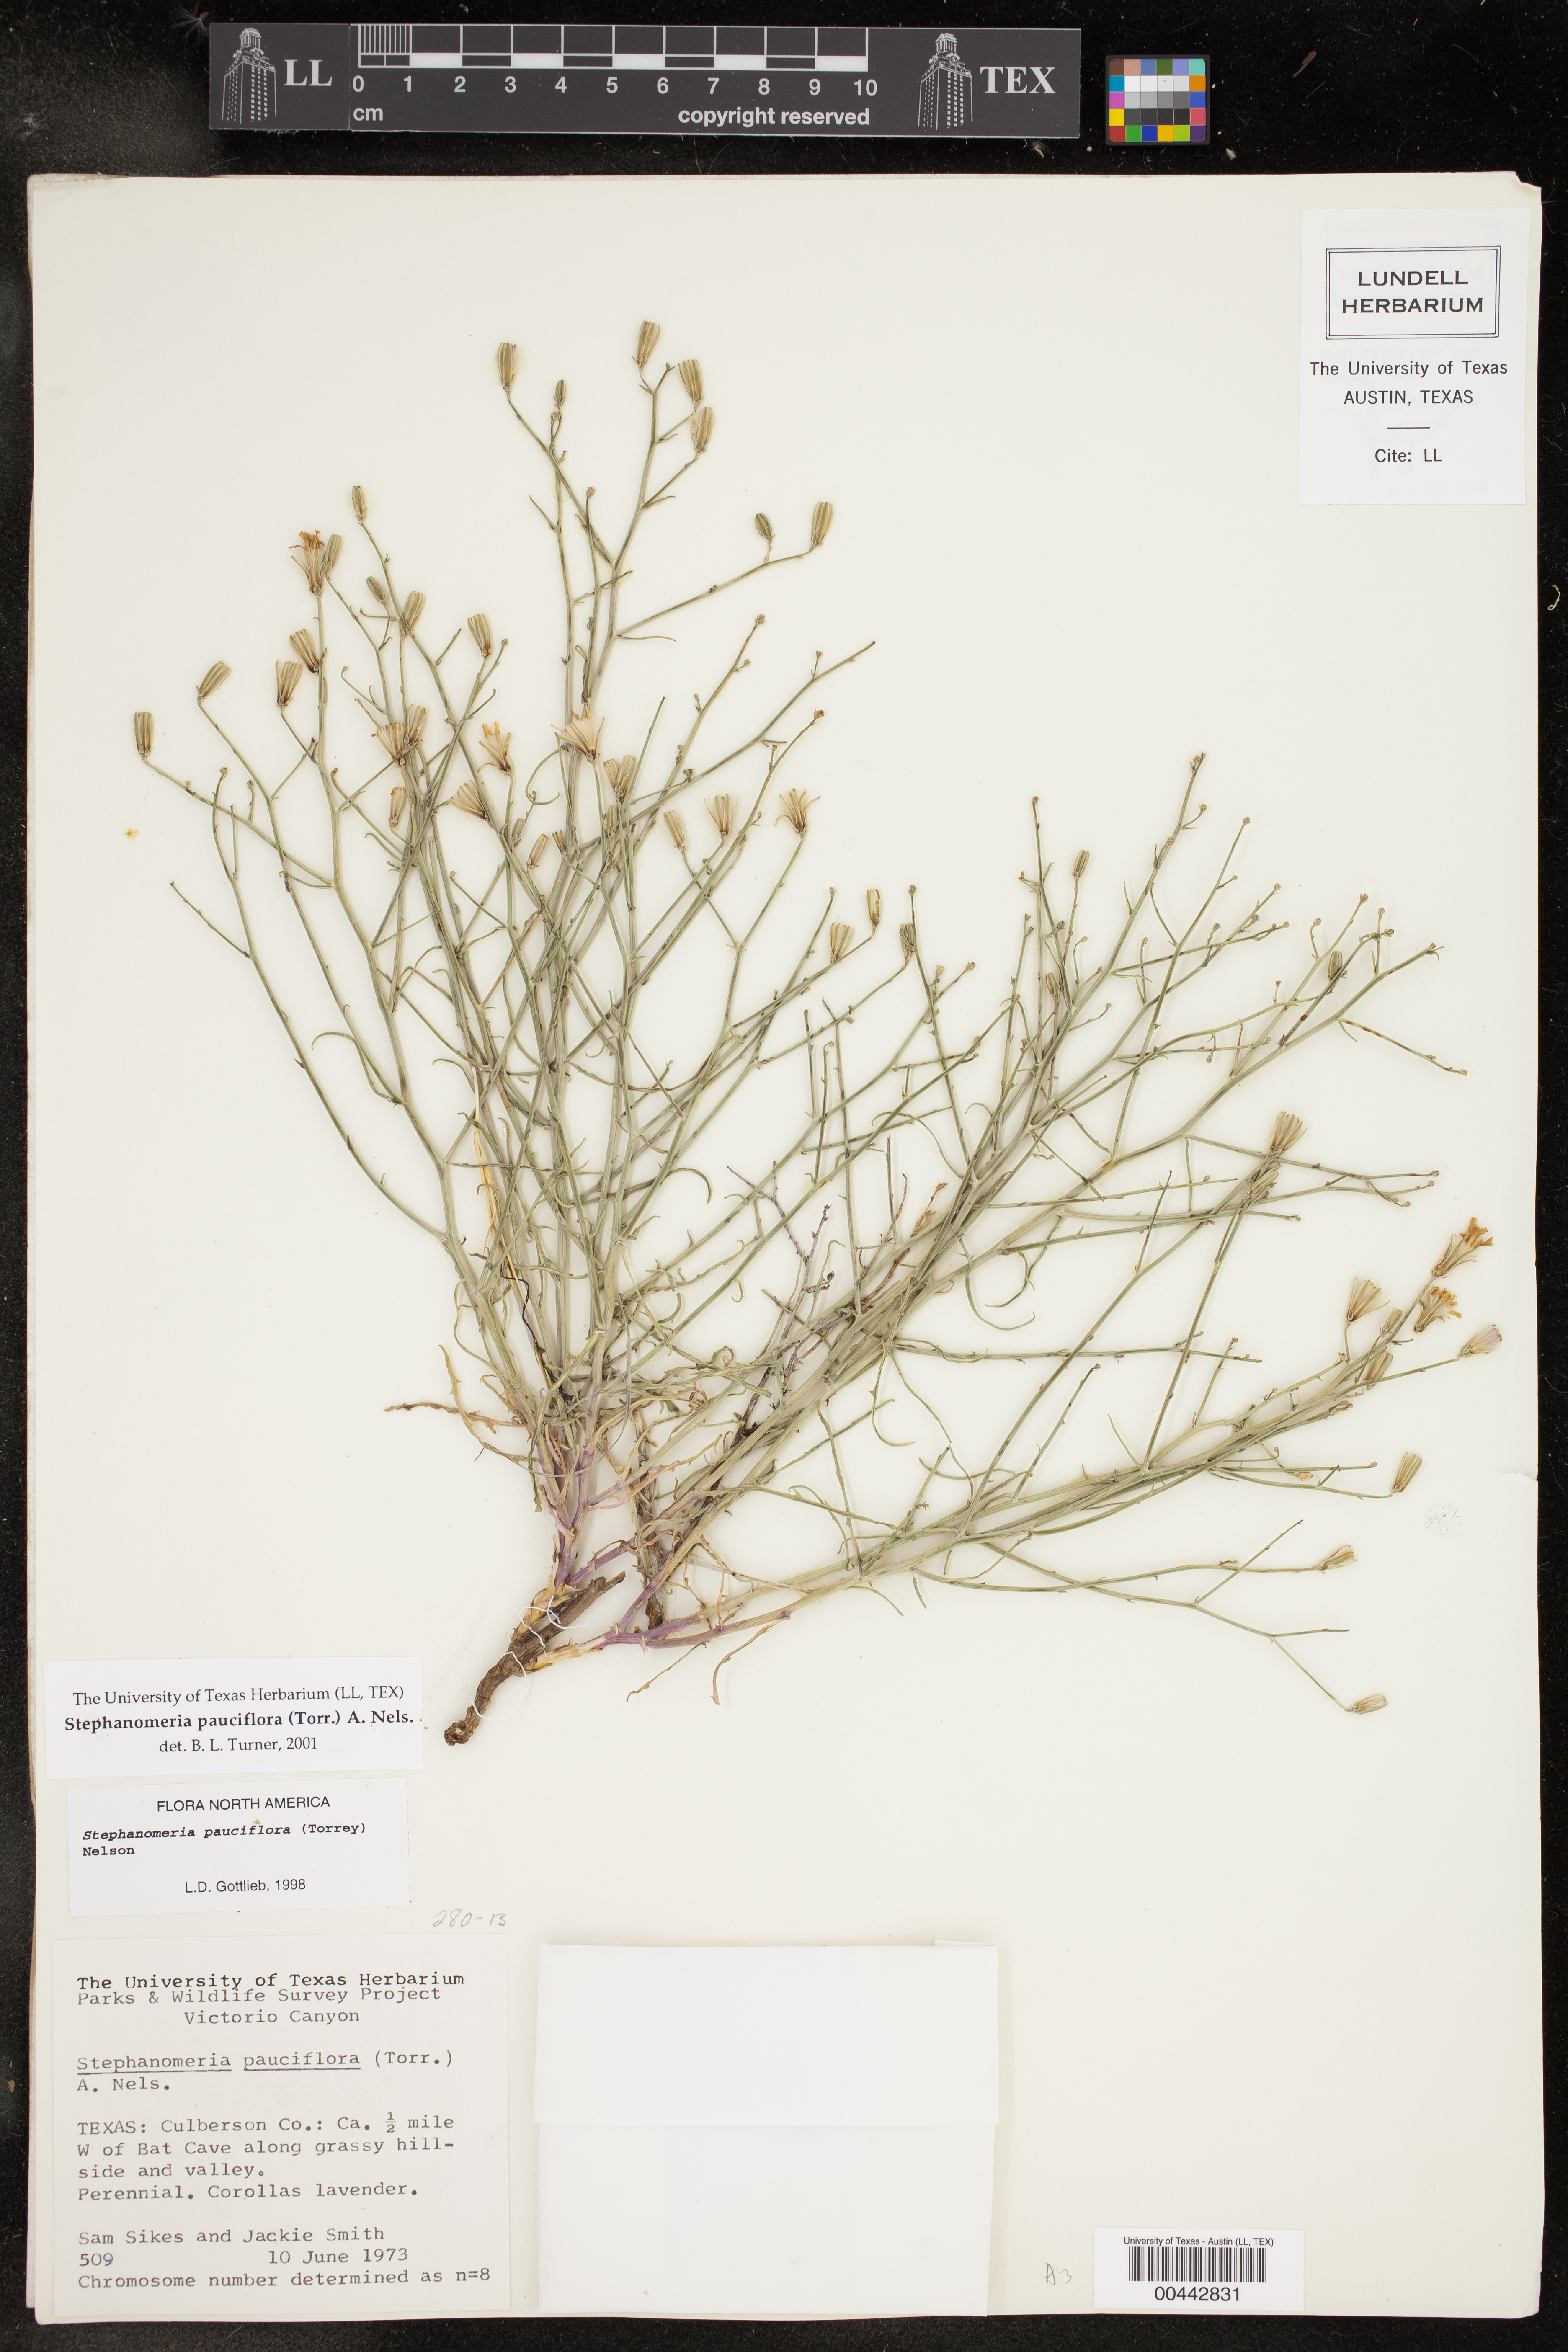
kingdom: Plantae
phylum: Tracheophyta
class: Magnoliopsida
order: Asterales
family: Asteraceae
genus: Stephanomeria
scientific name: Stephanomeria pauciflora
